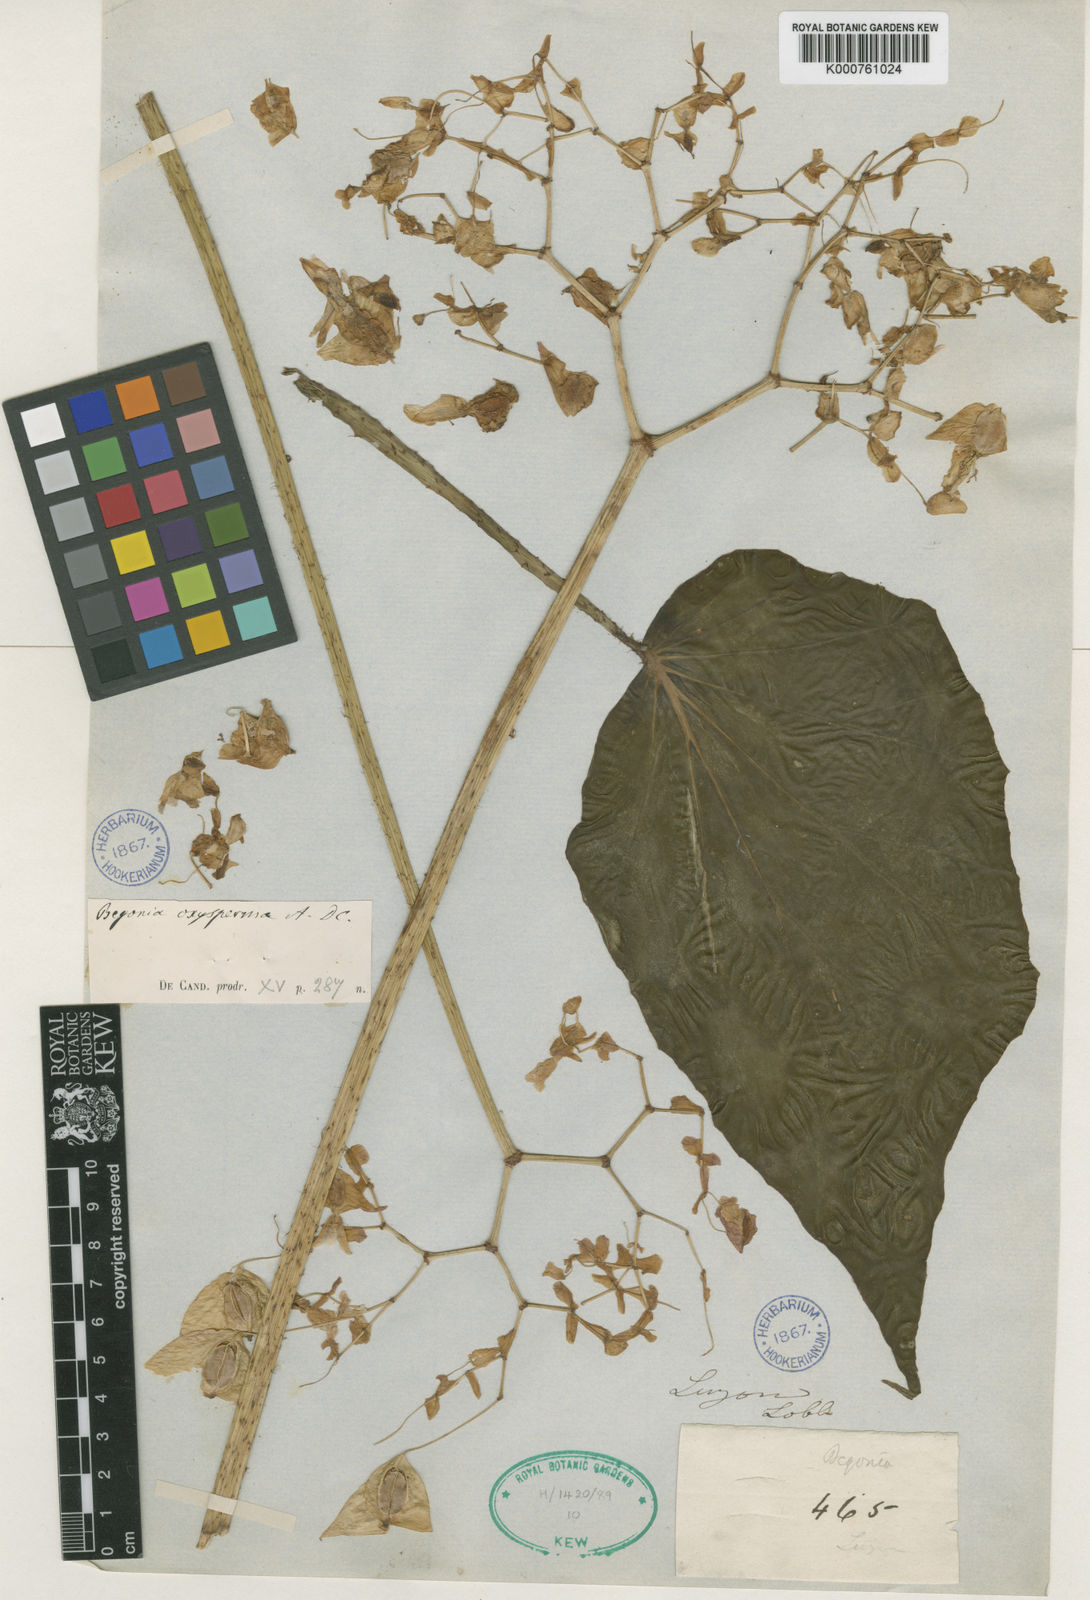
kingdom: Plantae
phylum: Tracheophyta
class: Magnoliopsida
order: Cucurbitales
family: Begoniaceae
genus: Begonia
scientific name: Begonia oxysperma
